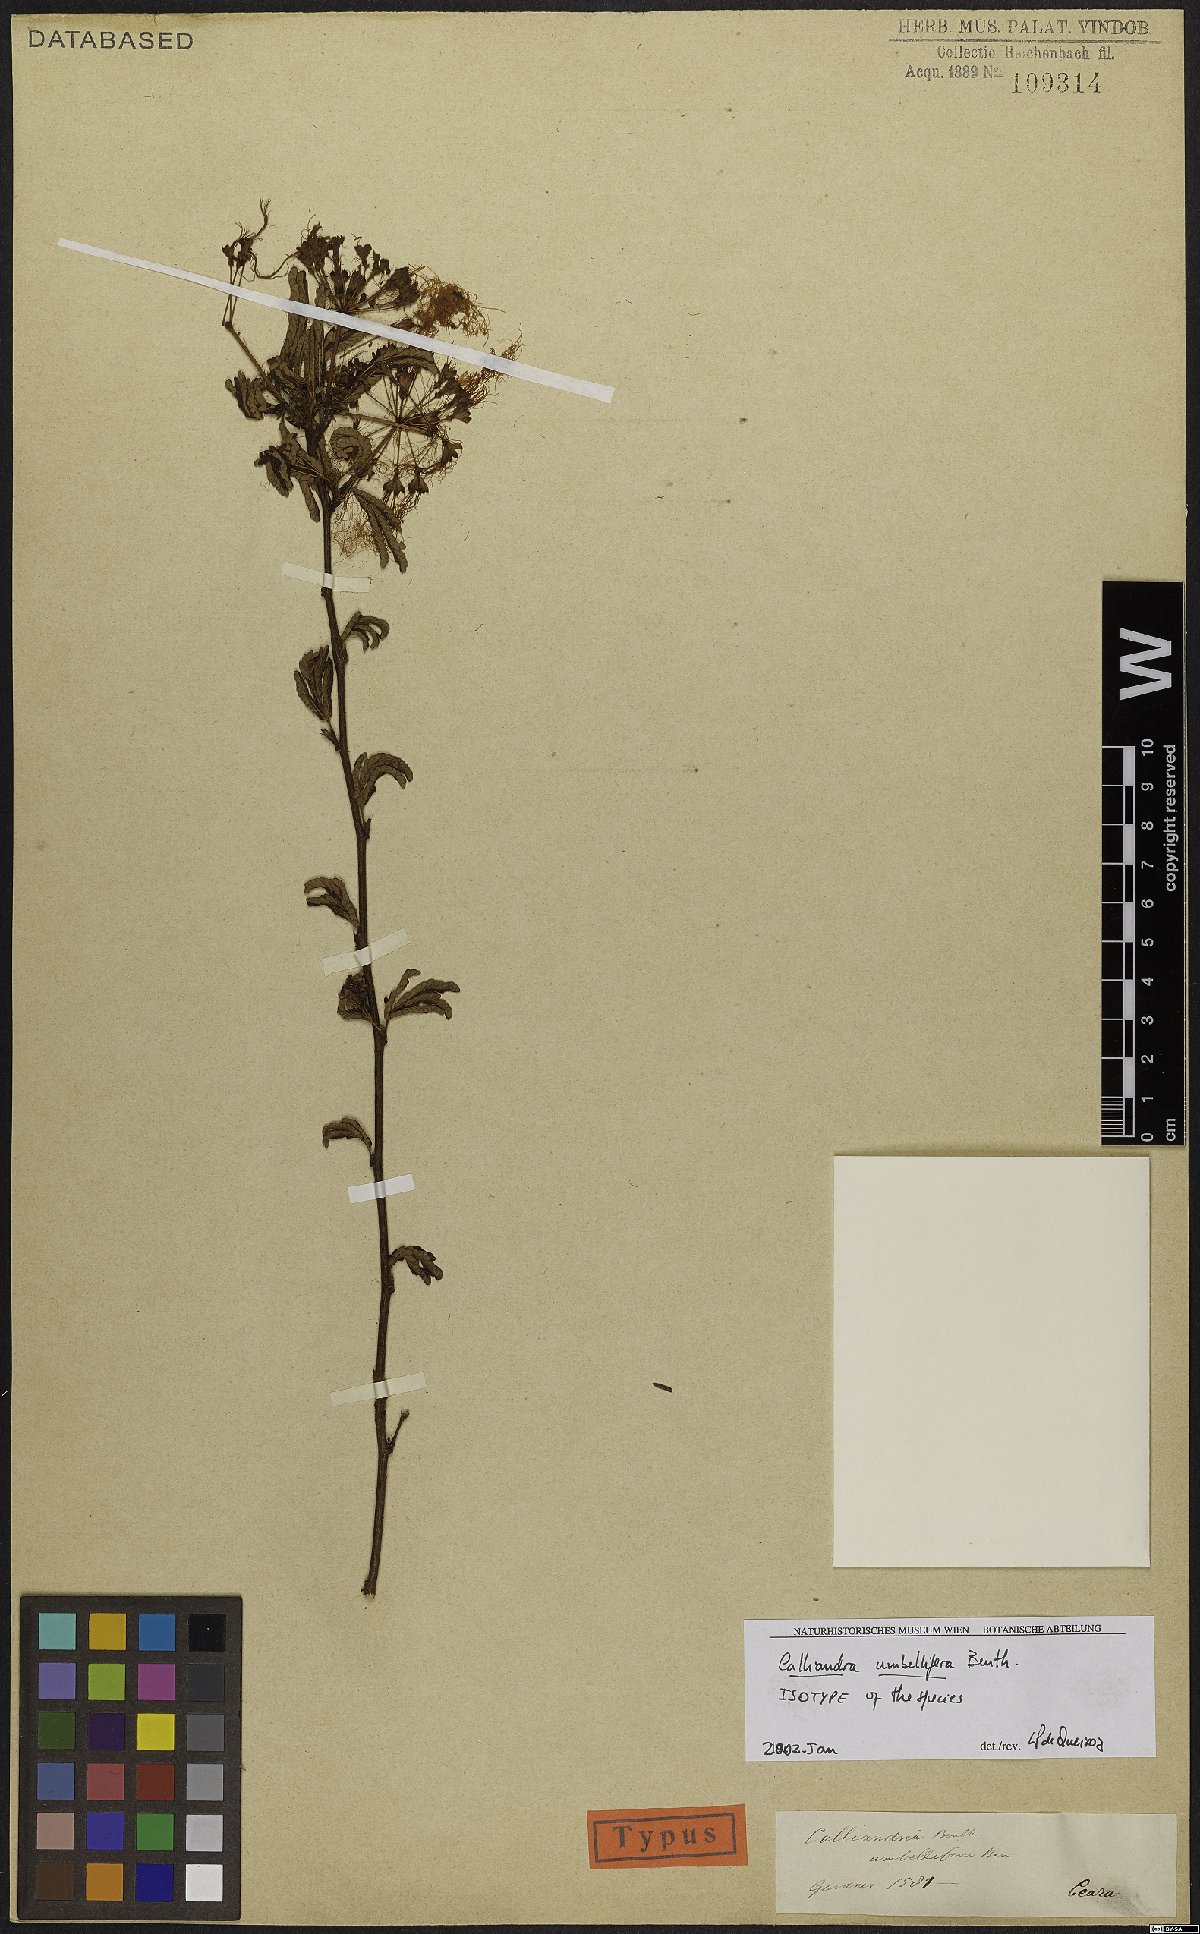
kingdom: Plantae
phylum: Tracheophyta
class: Magnoliopsida
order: Fabales
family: Fabaceae
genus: Calliandra
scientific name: Calliandra umbellifera
